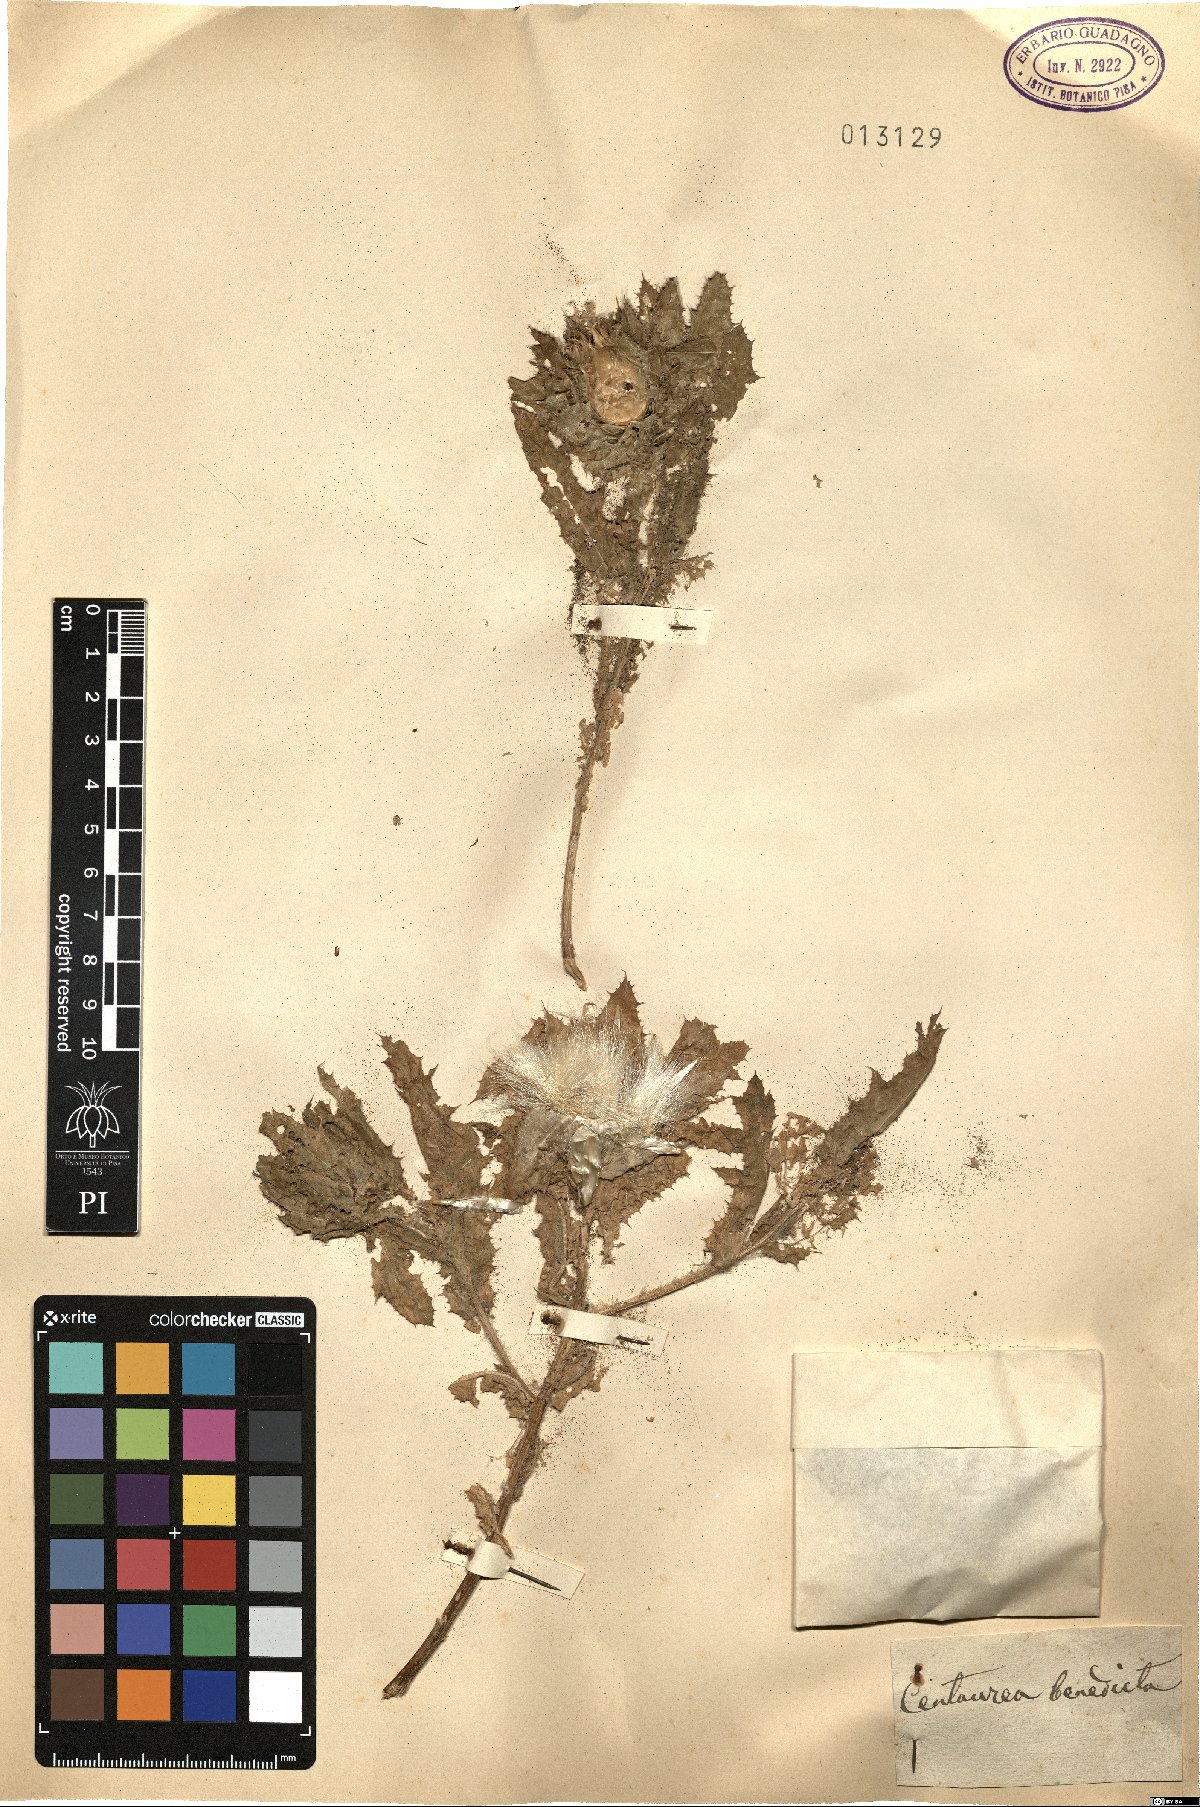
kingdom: Plantae
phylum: Tracheophyta
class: Magnoliopsida
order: Asterales
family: Asteraceae
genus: Centaurea
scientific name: Centaurea benedicta
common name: Blessed thistle
